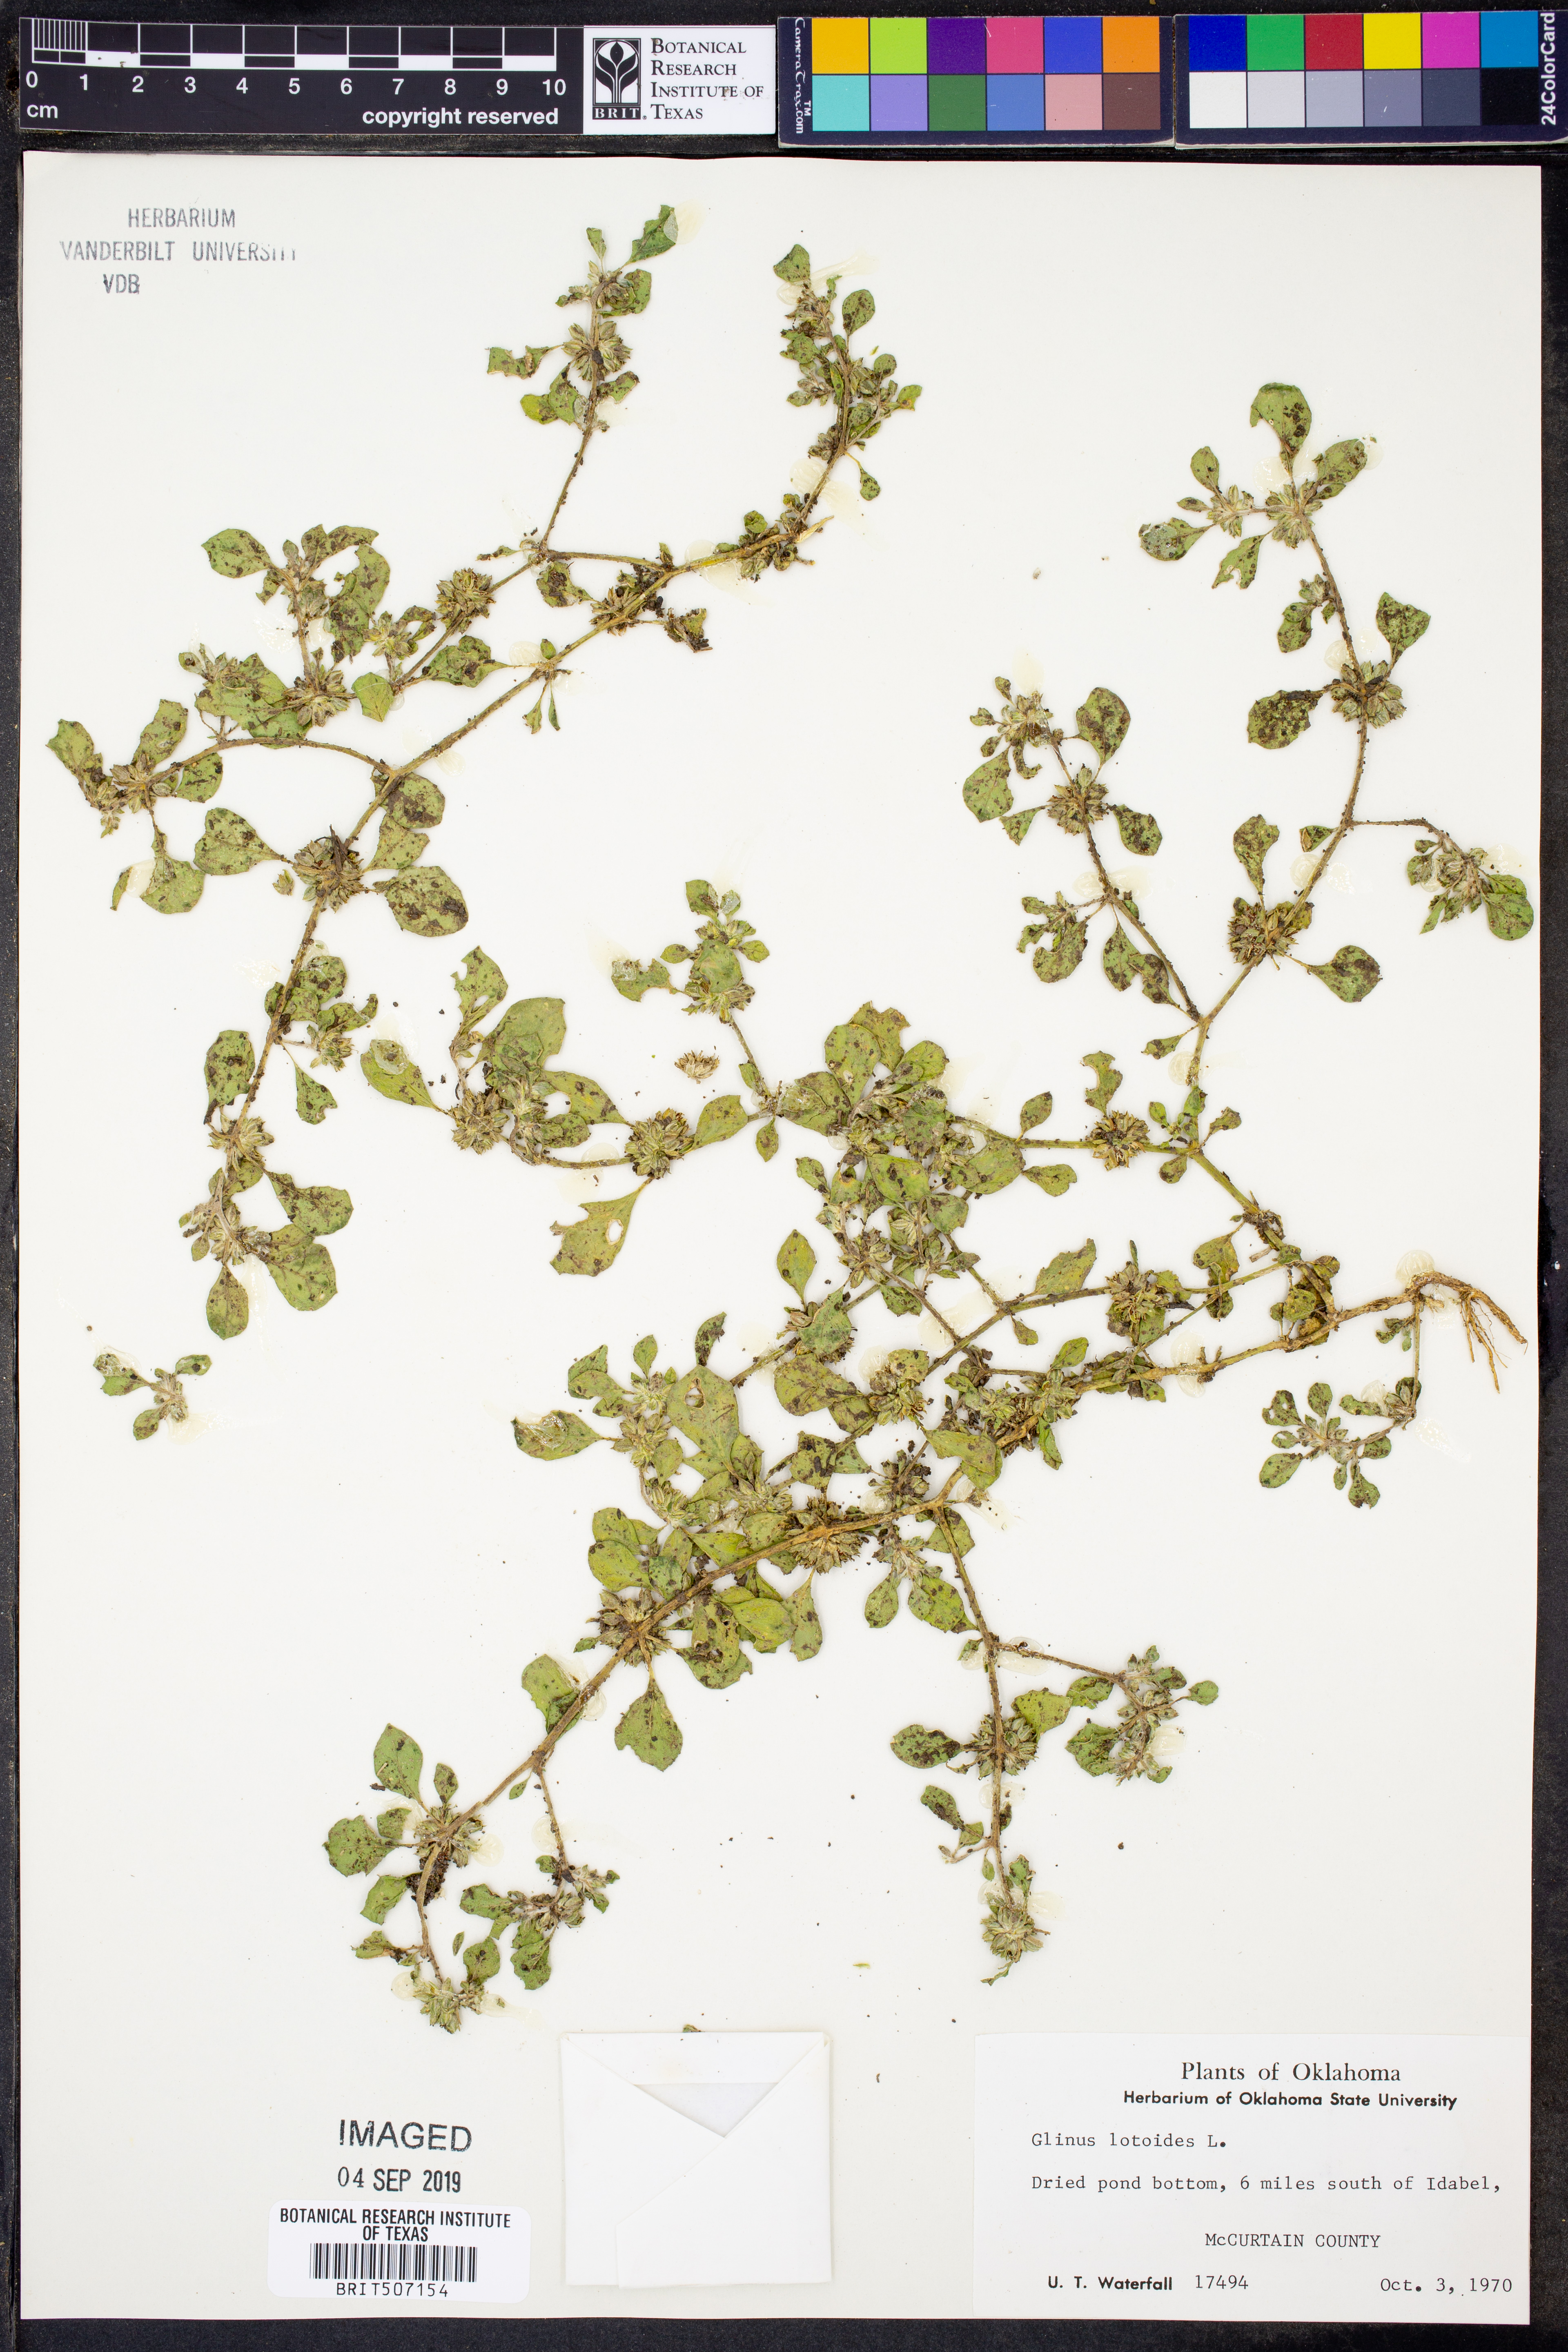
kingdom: Plantae
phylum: Tracheophyta
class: Magnoliopsida
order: Caryophyllales
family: Molluginaceae
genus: Glinus
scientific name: Glinus lotoides
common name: Lotus sweetjuice
